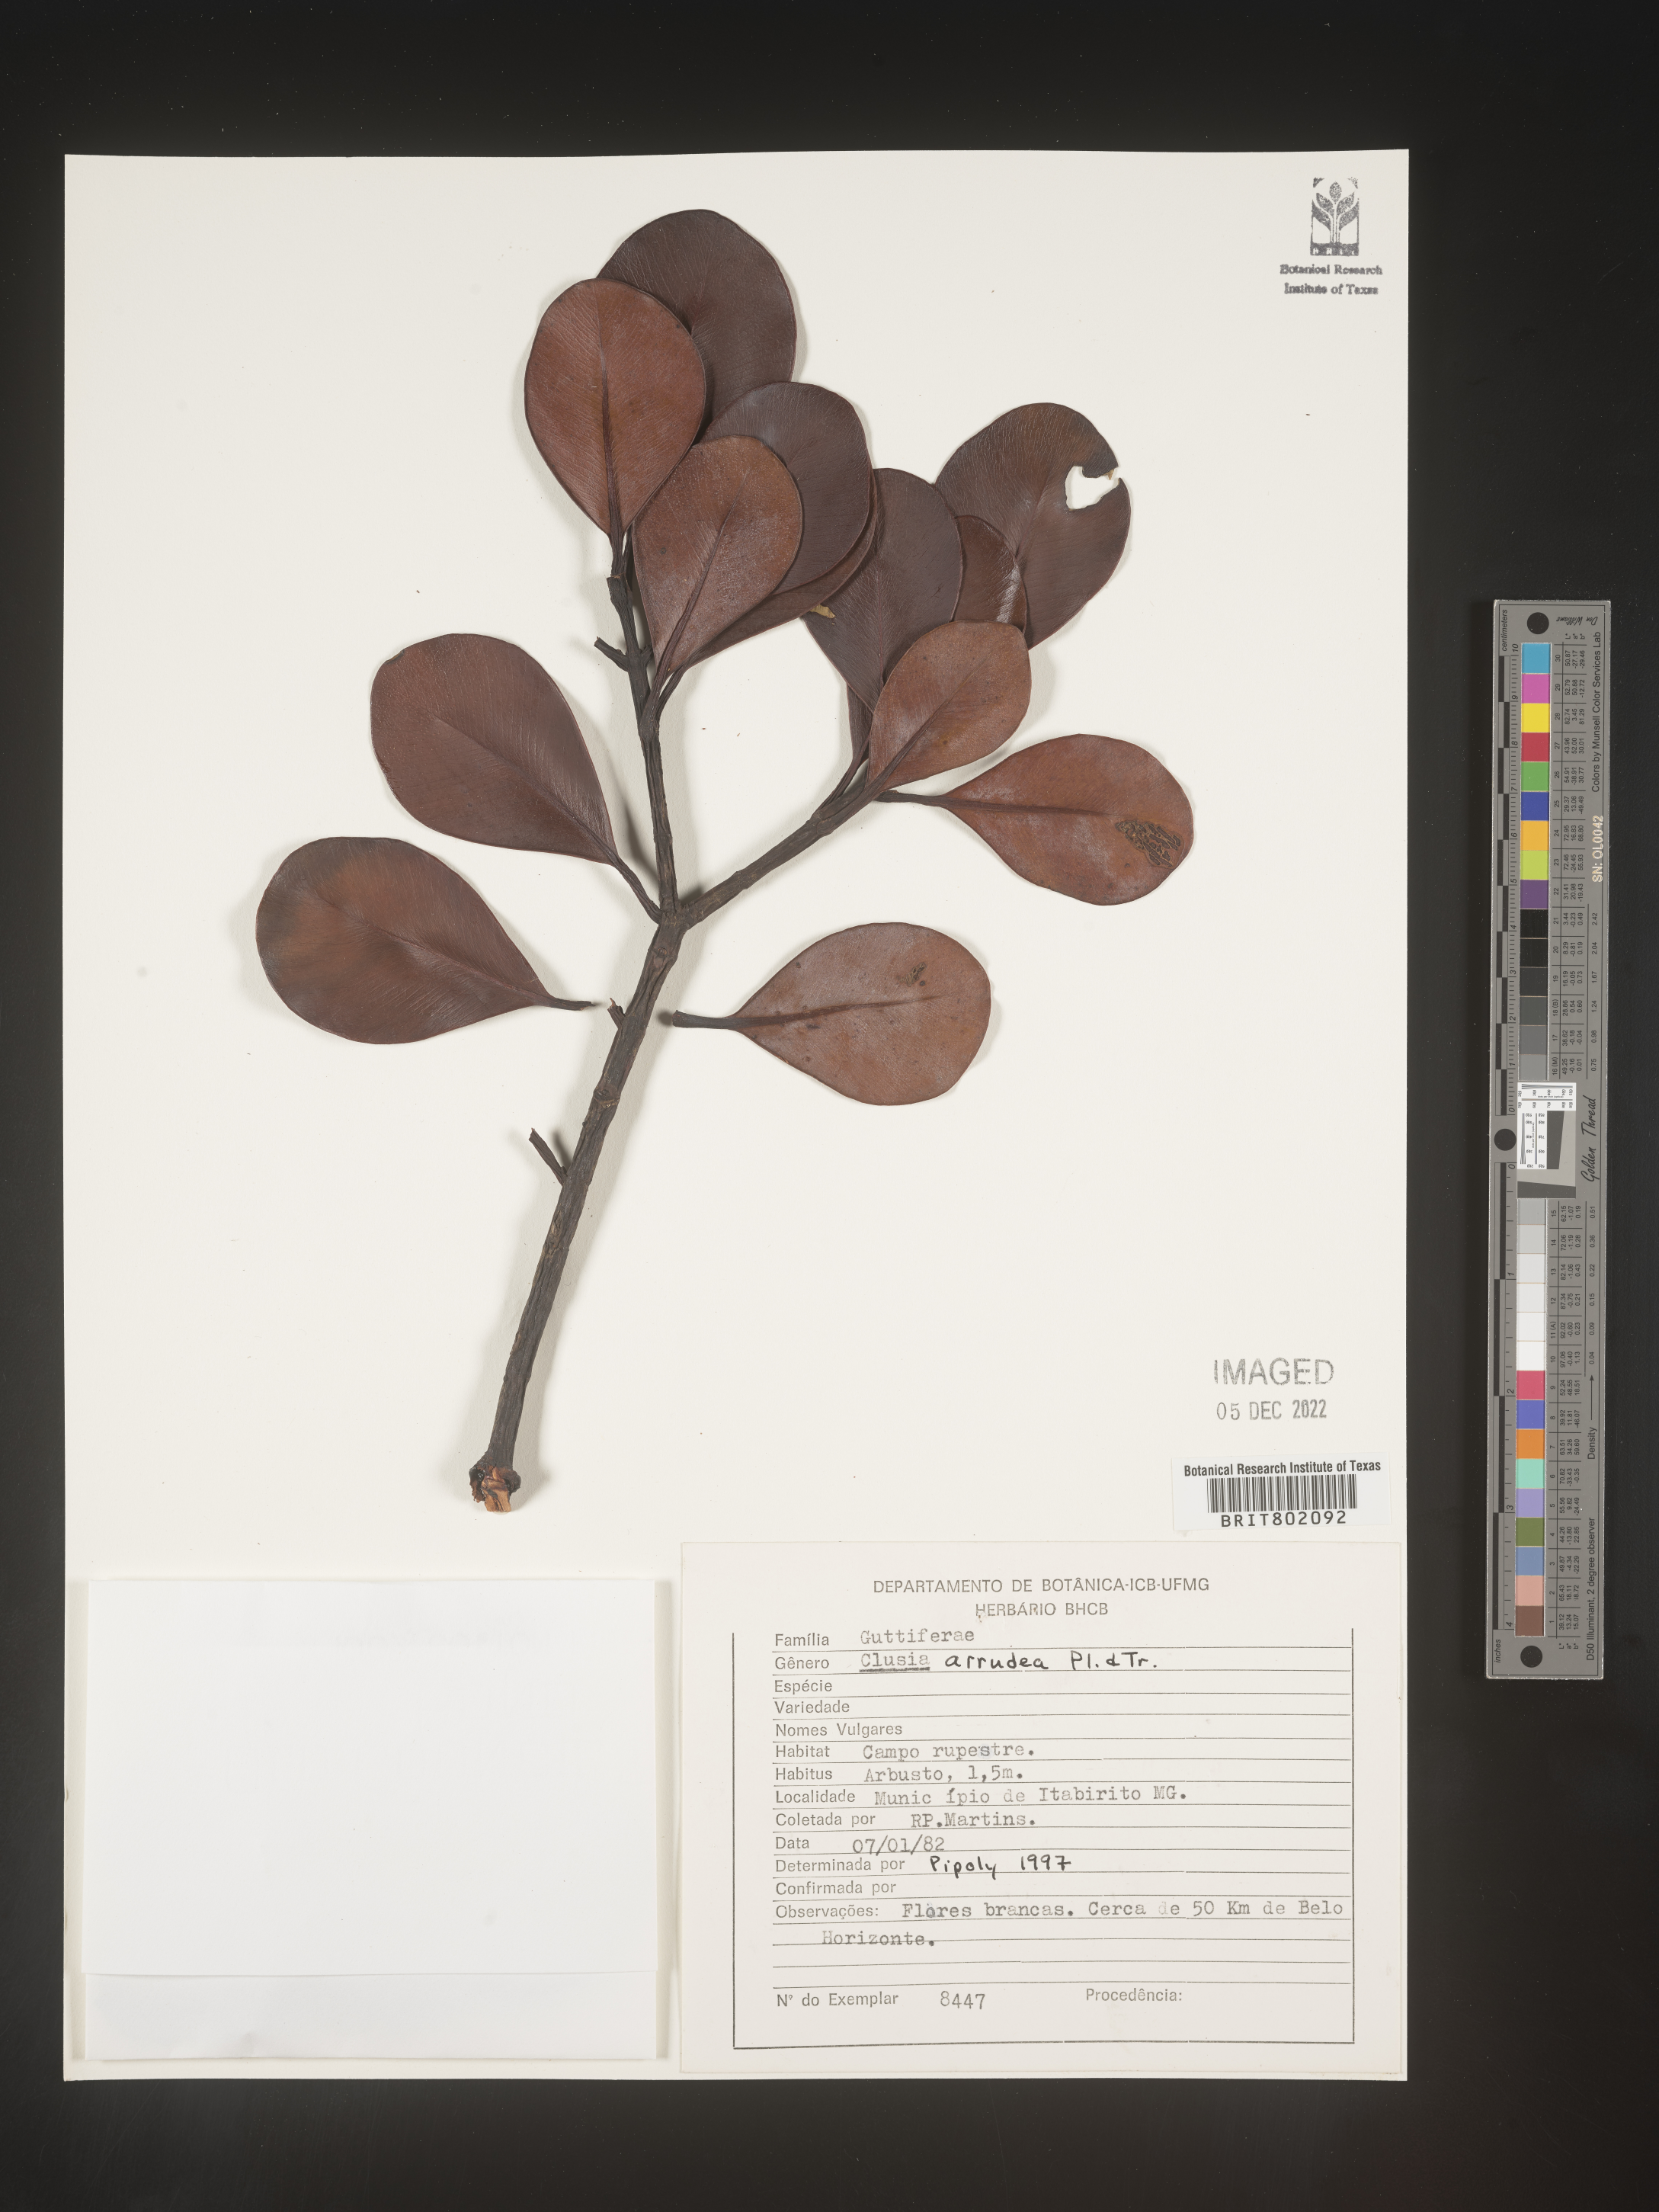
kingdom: Plantae
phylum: Tracheophyta
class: Magnoliopsida
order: Malpighiales
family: Clusiaceae
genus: Clusia
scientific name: Clusia mexiae
